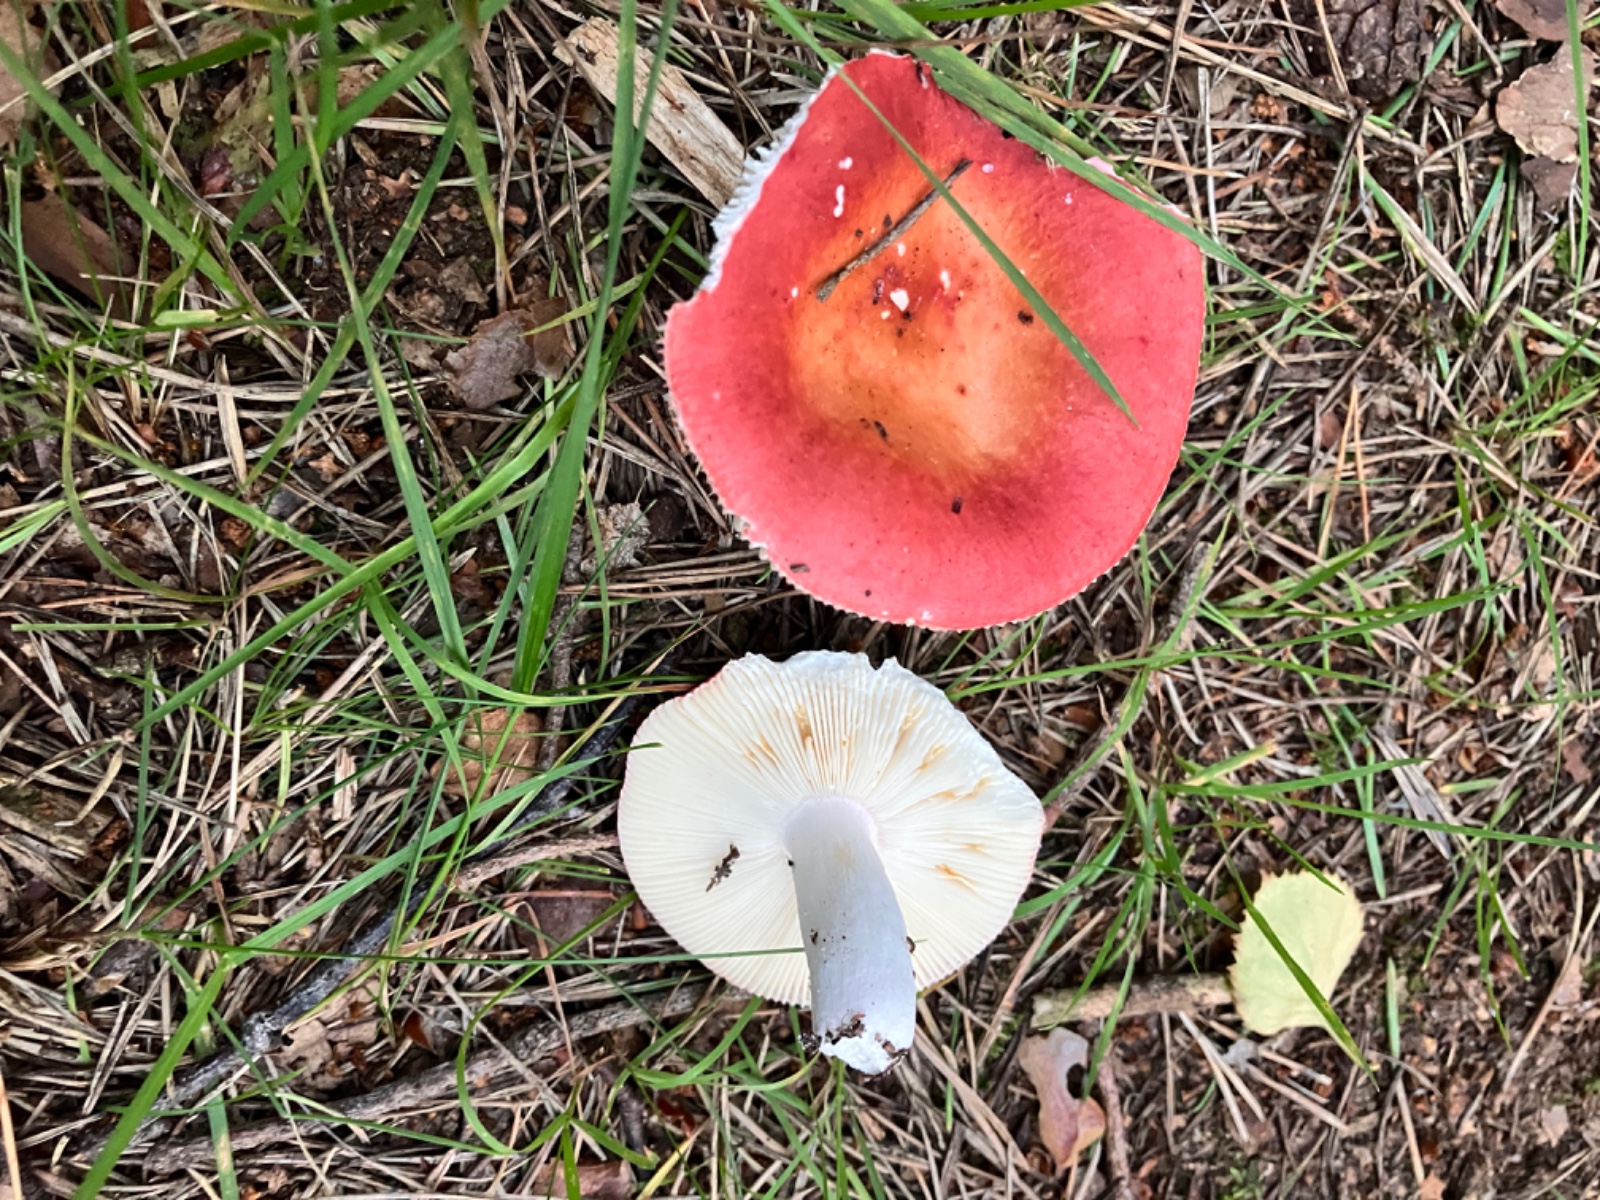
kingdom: Fungi
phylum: Basidiomycota
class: Agaricomycetes
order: Russulales
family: Russulaceae
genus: Russula
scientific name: Russula velenovskyi
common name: orangerød skørhat
